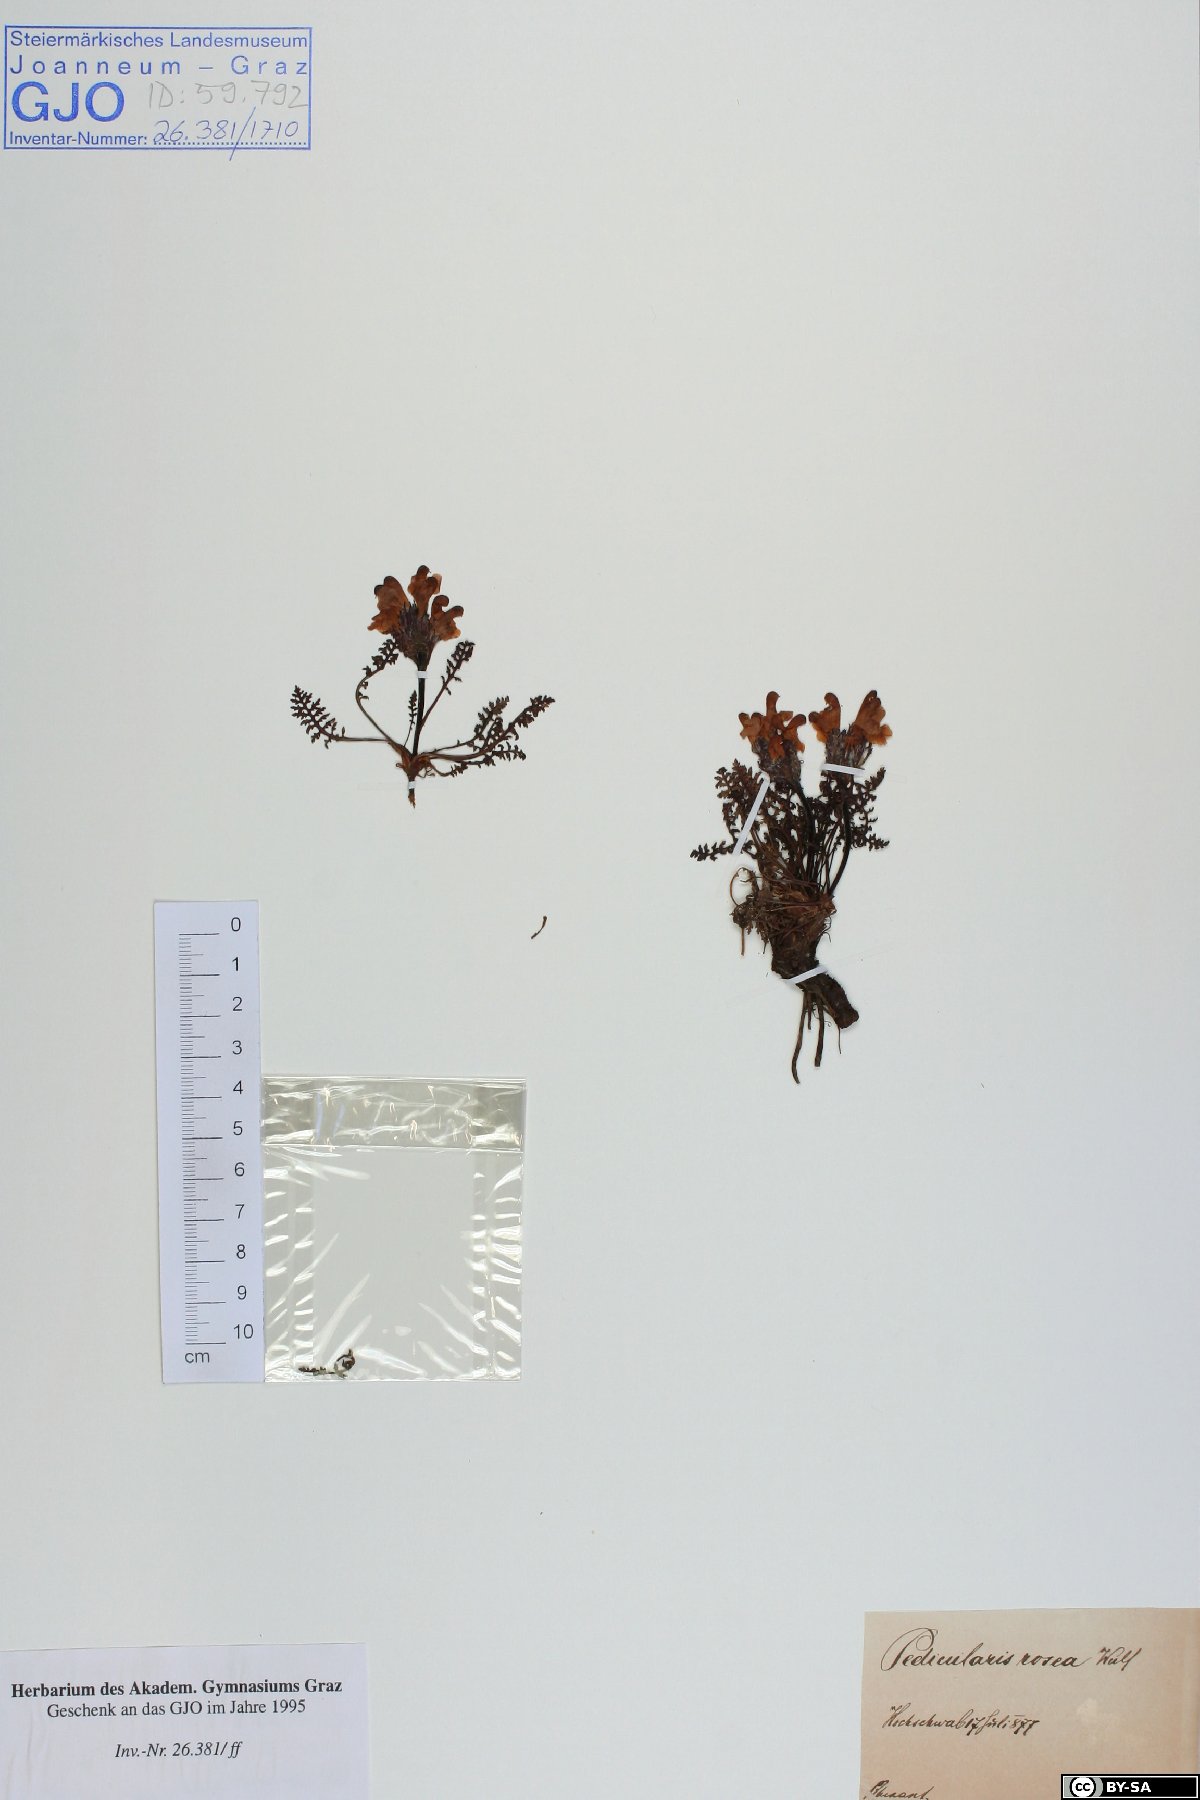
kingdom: Plantae
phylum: Tracheophyta
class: Magnoliopsida
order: Lamiales
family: Orobanchaceae
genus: Pedicularis
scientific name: Pedicularis rosea
